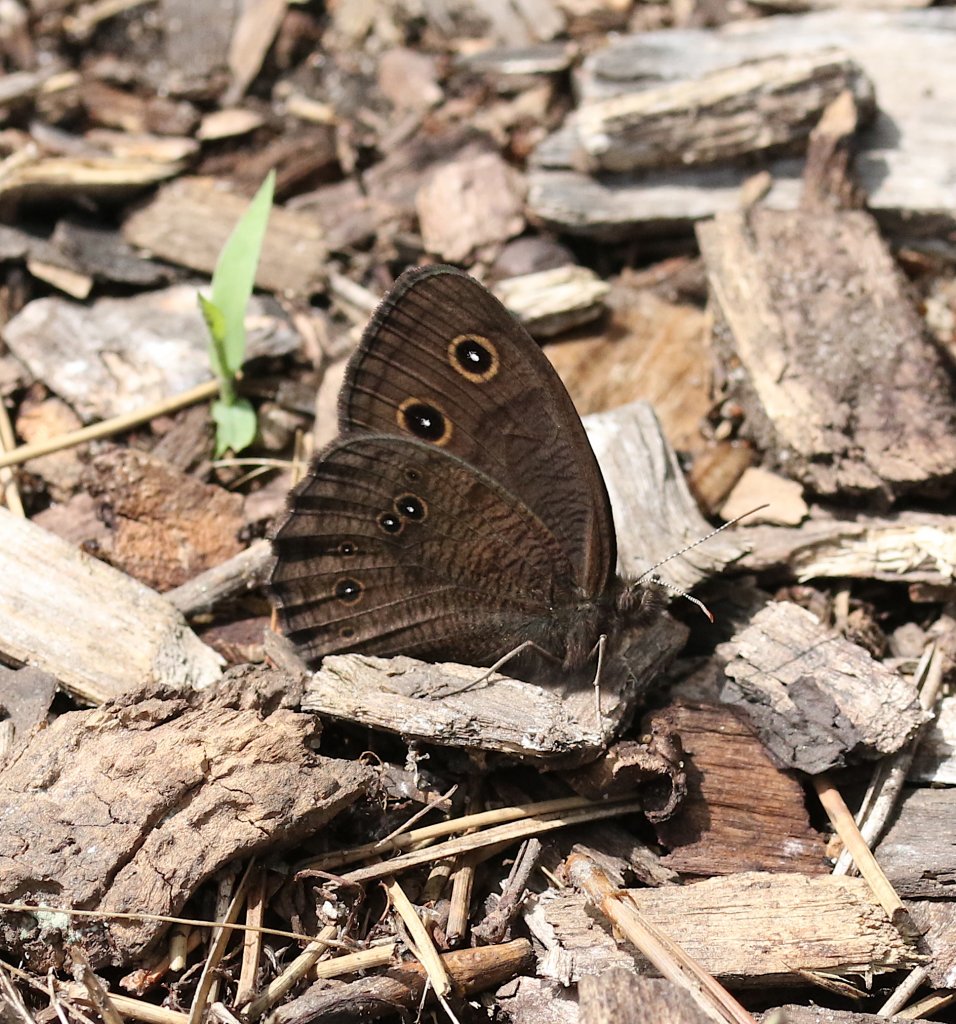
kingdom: Animalia
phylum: Arthropoda
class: Insecta
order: Lepidoptera
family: Nymphalidae
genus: Cercyonis
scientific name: Cercyonis pegala
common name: Common Wood-Nymph
